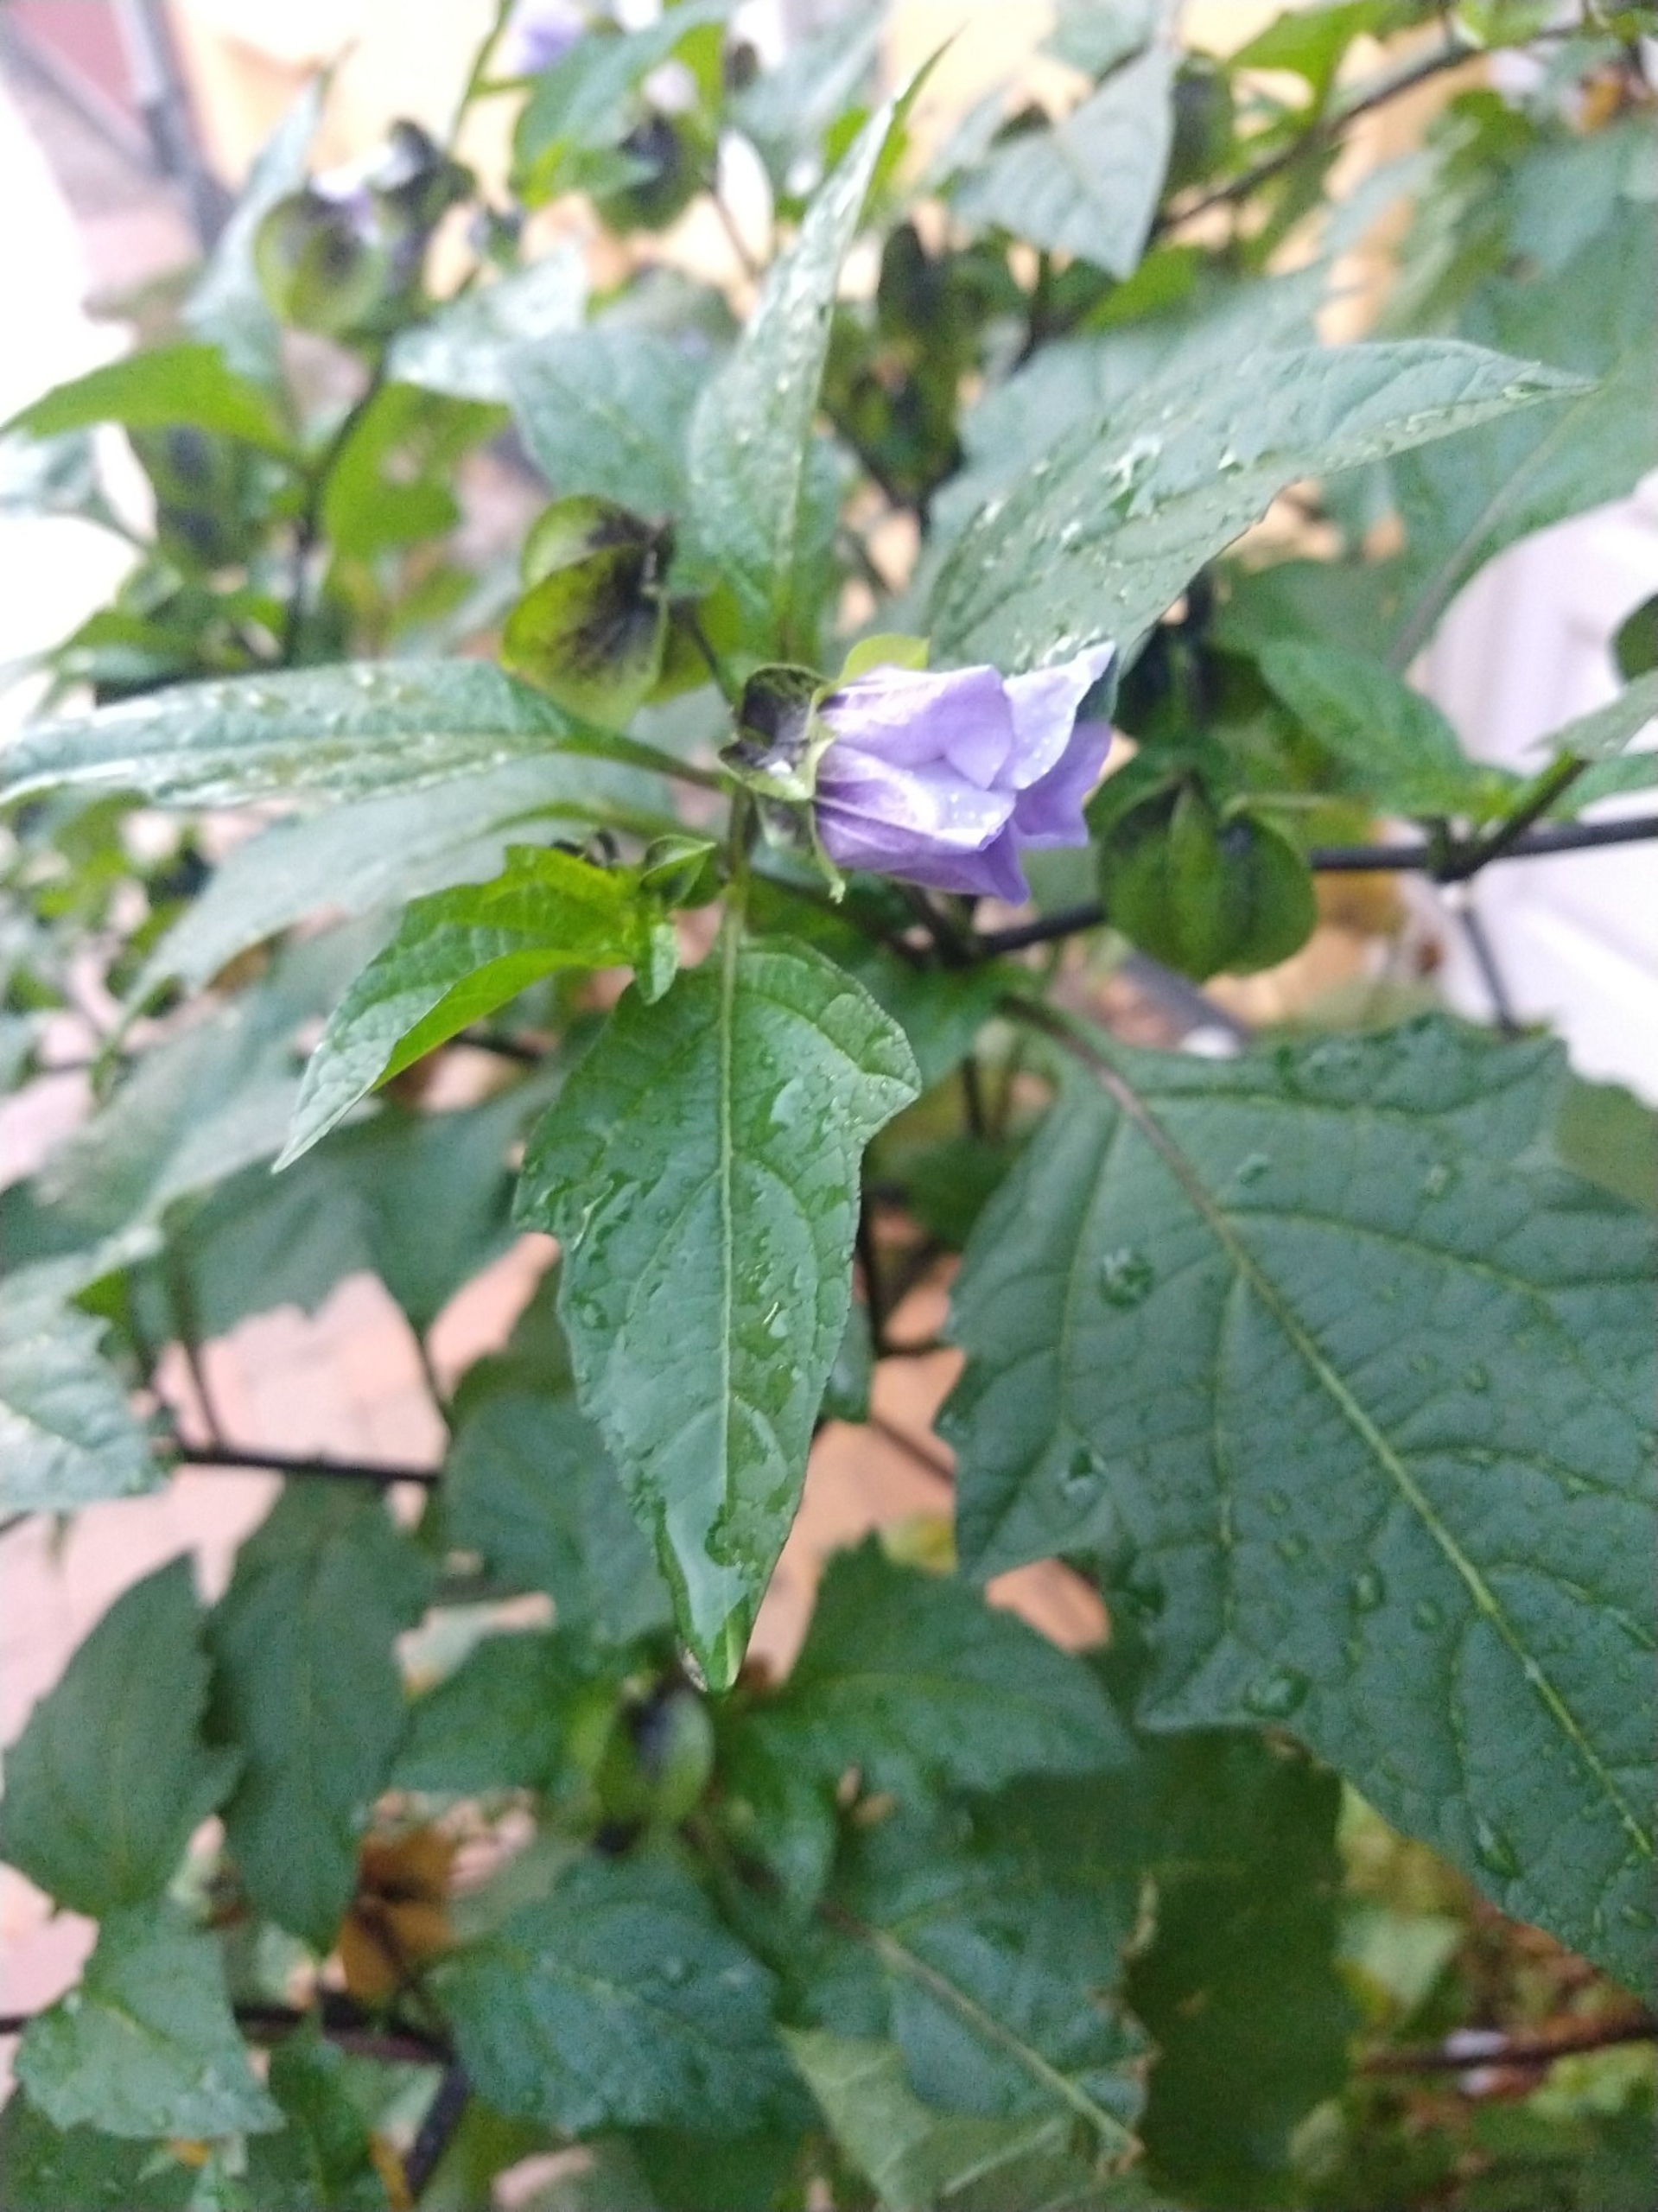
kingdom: Plantae
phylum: Tracheophyta
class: Magnoliopsida
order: Solanales
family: Solanaceae
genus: Nicandra
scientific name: Nicandra physalodes
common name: Kantbæger
